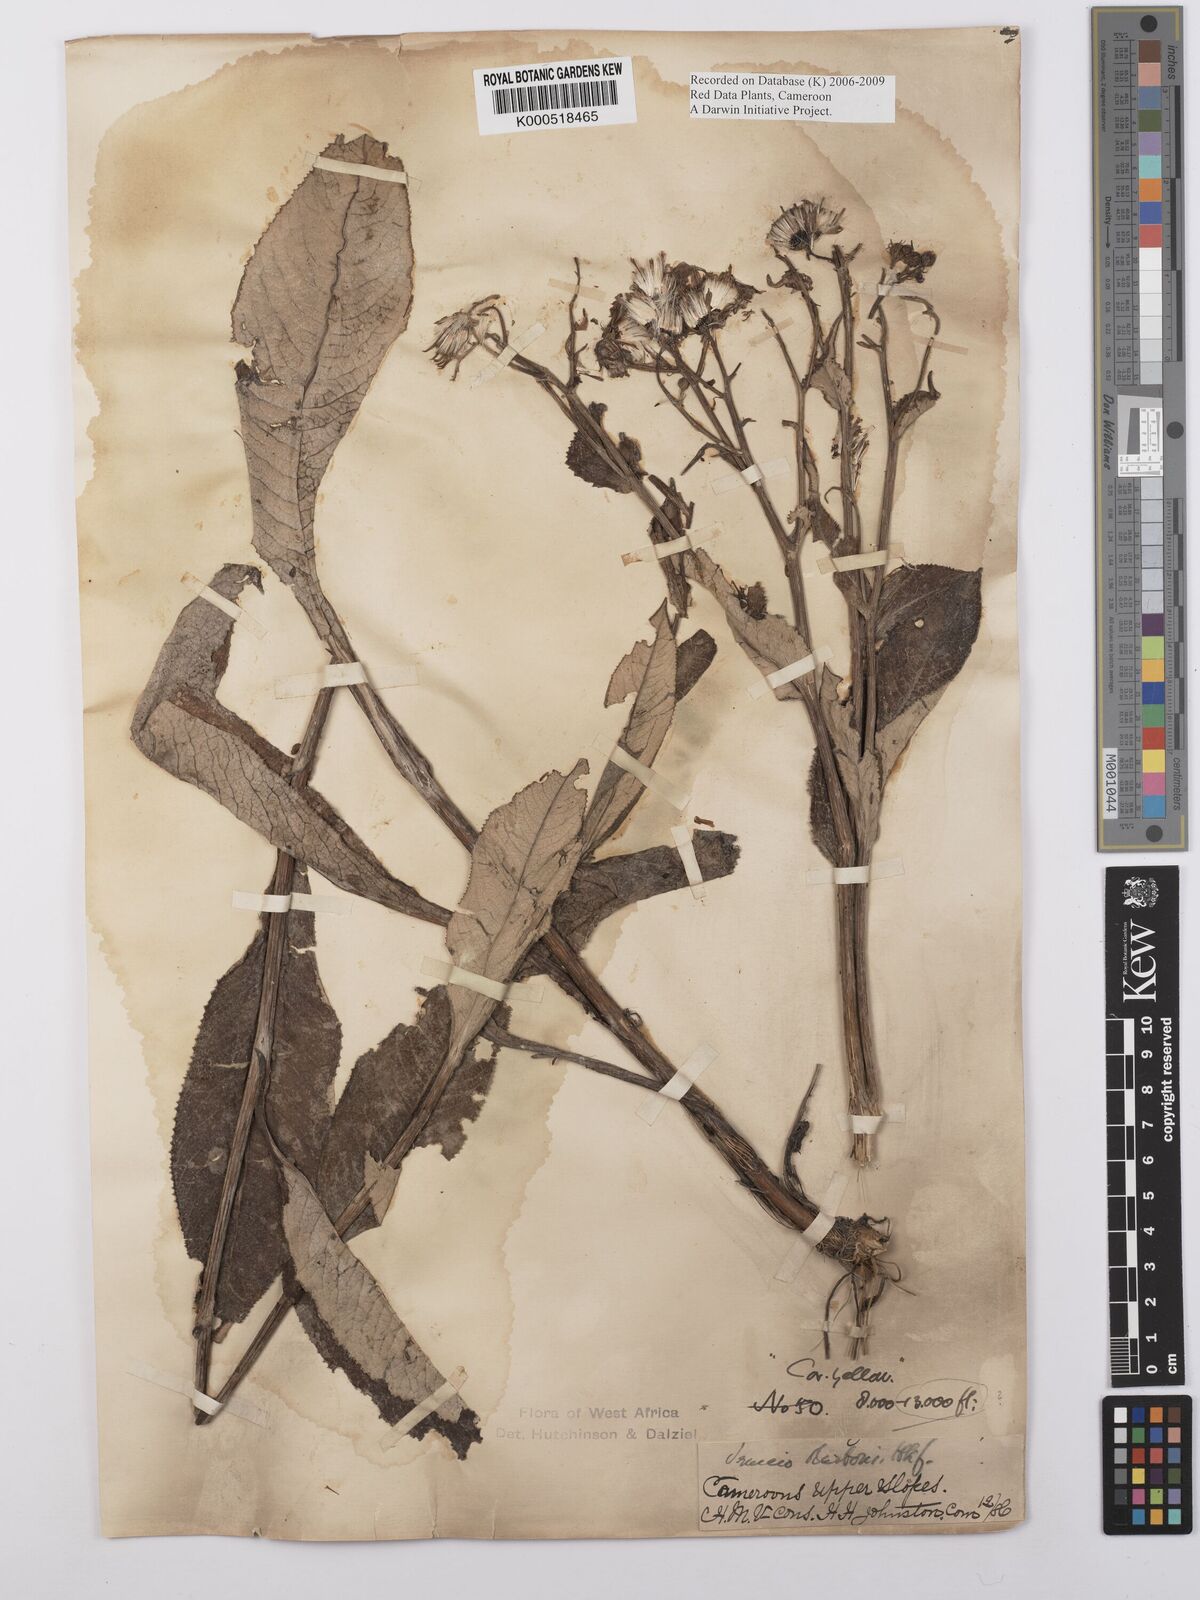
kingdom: Plantae
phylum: Tracheophyta
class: Magnoliopsida
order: Asterales
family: Asteraceae
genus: Senecio
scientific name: Senecio burtonii
